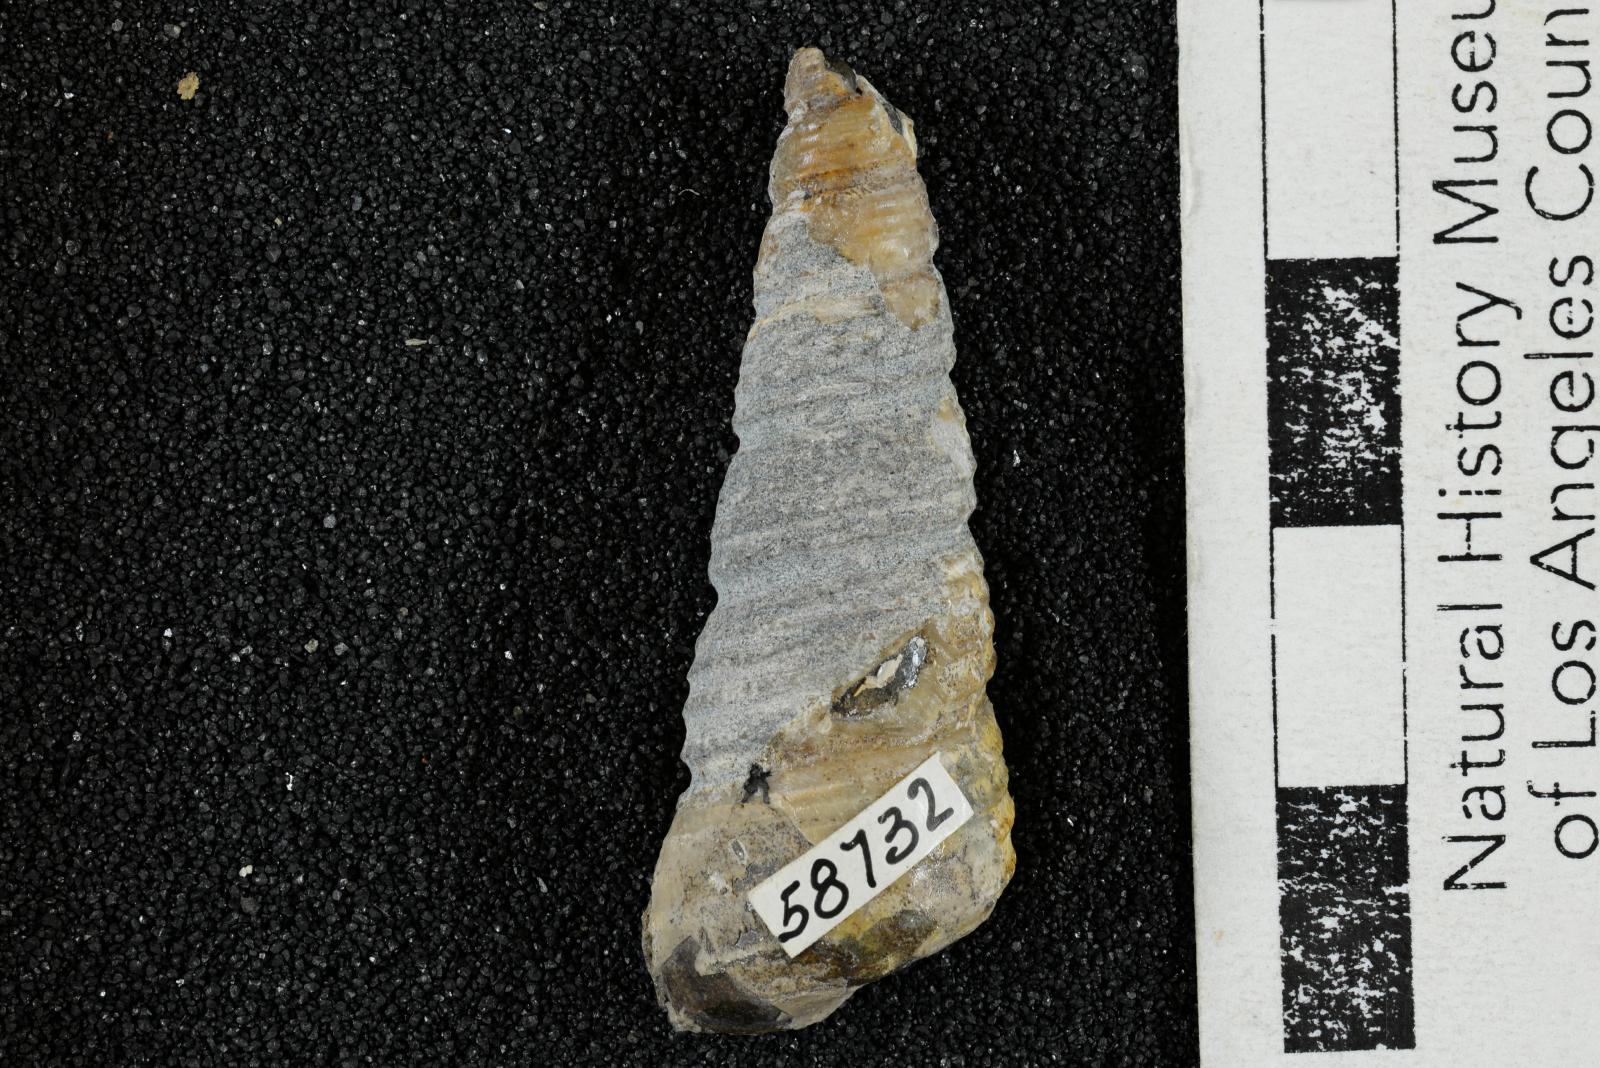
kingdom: Animalia
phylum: Mollusca
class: Gastropoda
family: Turritellidae
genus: Turritella
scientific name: Turritella chicoensis
